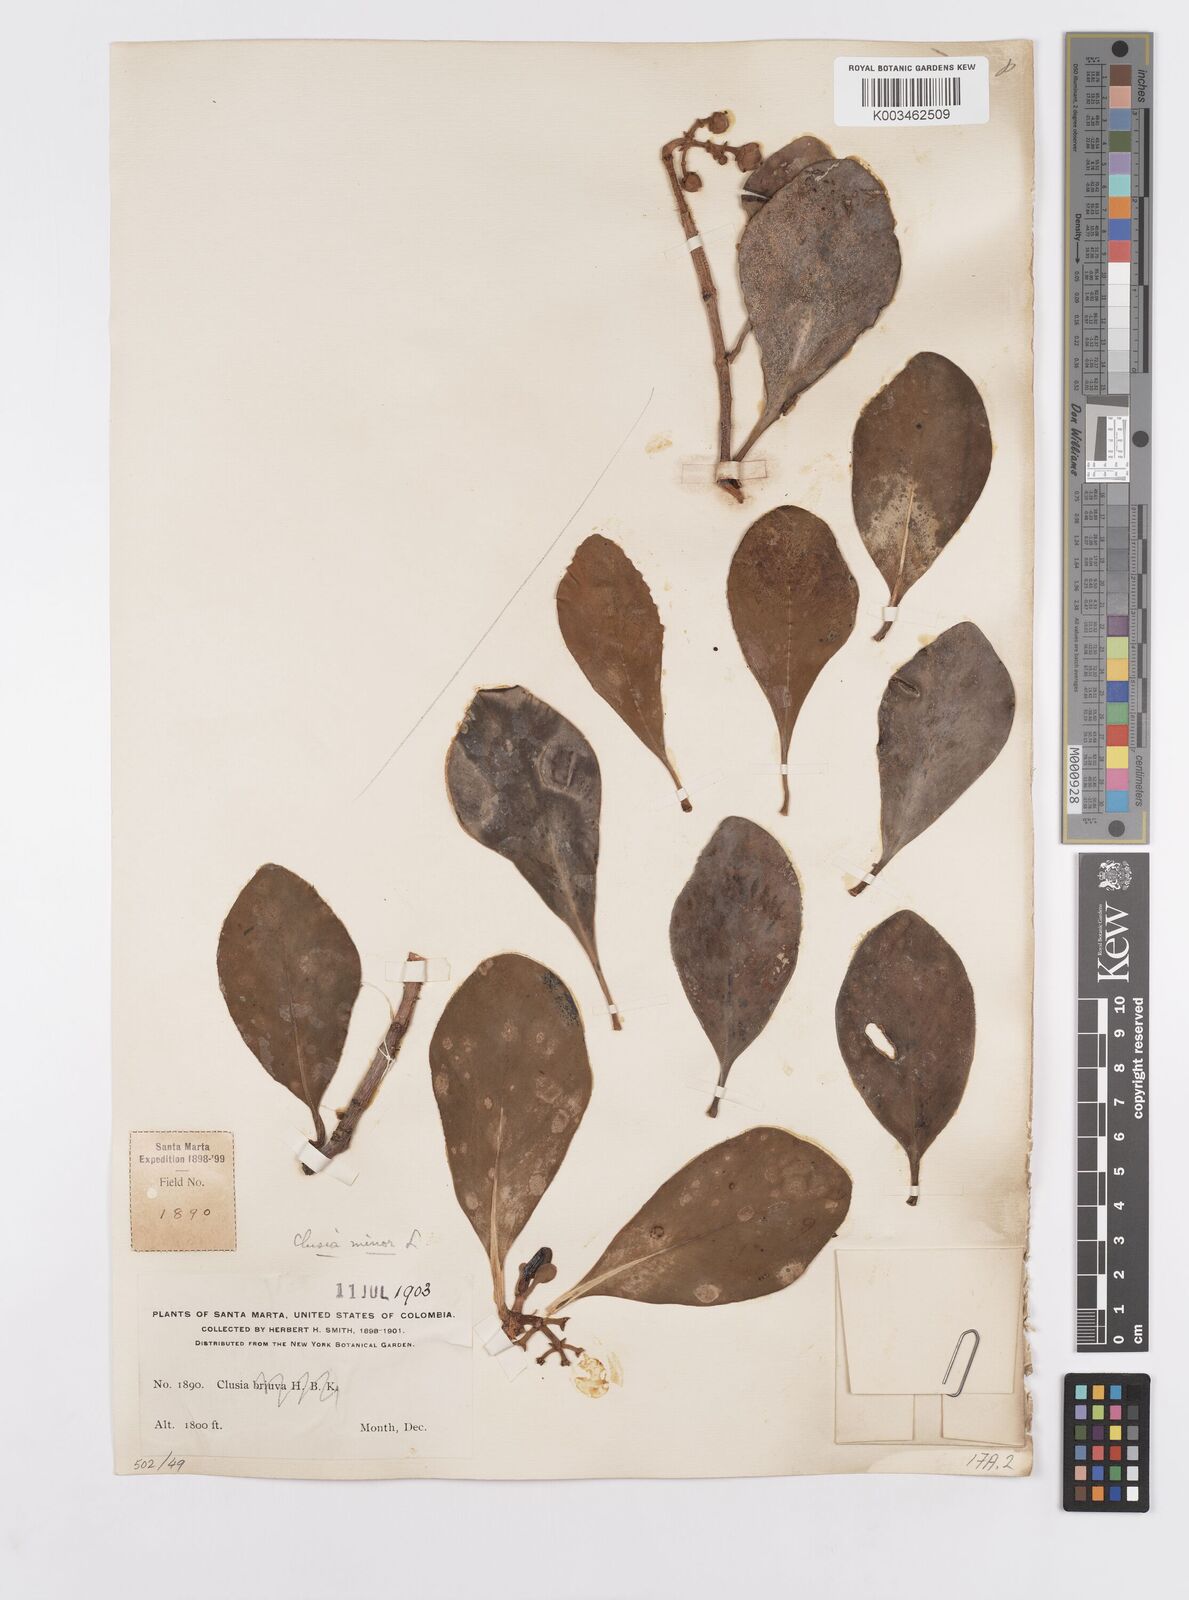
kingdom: Plantae
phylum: Tracheophyta
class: Magnoliopsida
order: Malpighiales
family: Clusiaceae
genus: Clusia
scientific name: Clusia minor
